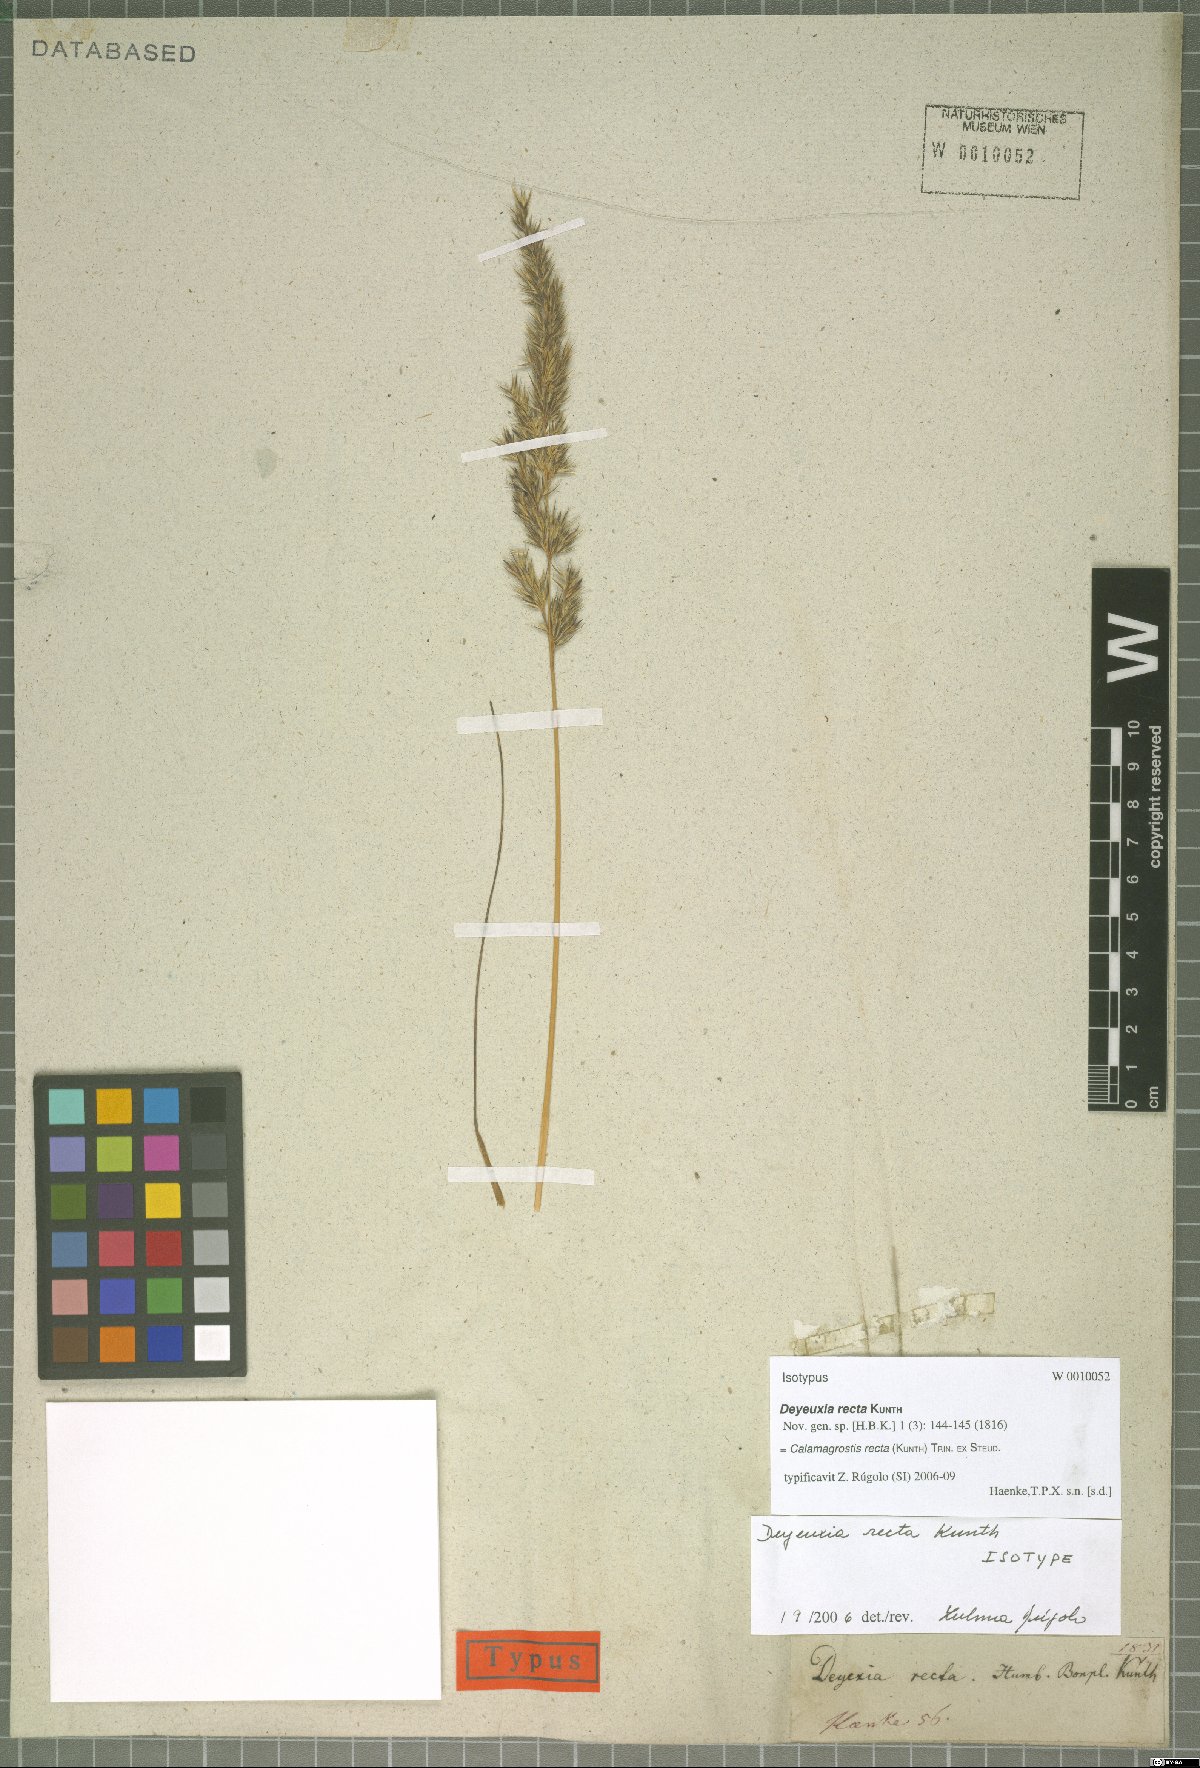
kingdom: Plantae
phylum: Tracheophyta
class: Liliopsida
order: Poales
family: Poaceae
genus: Cinnagrostis
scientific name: Cinnagrostis recta
